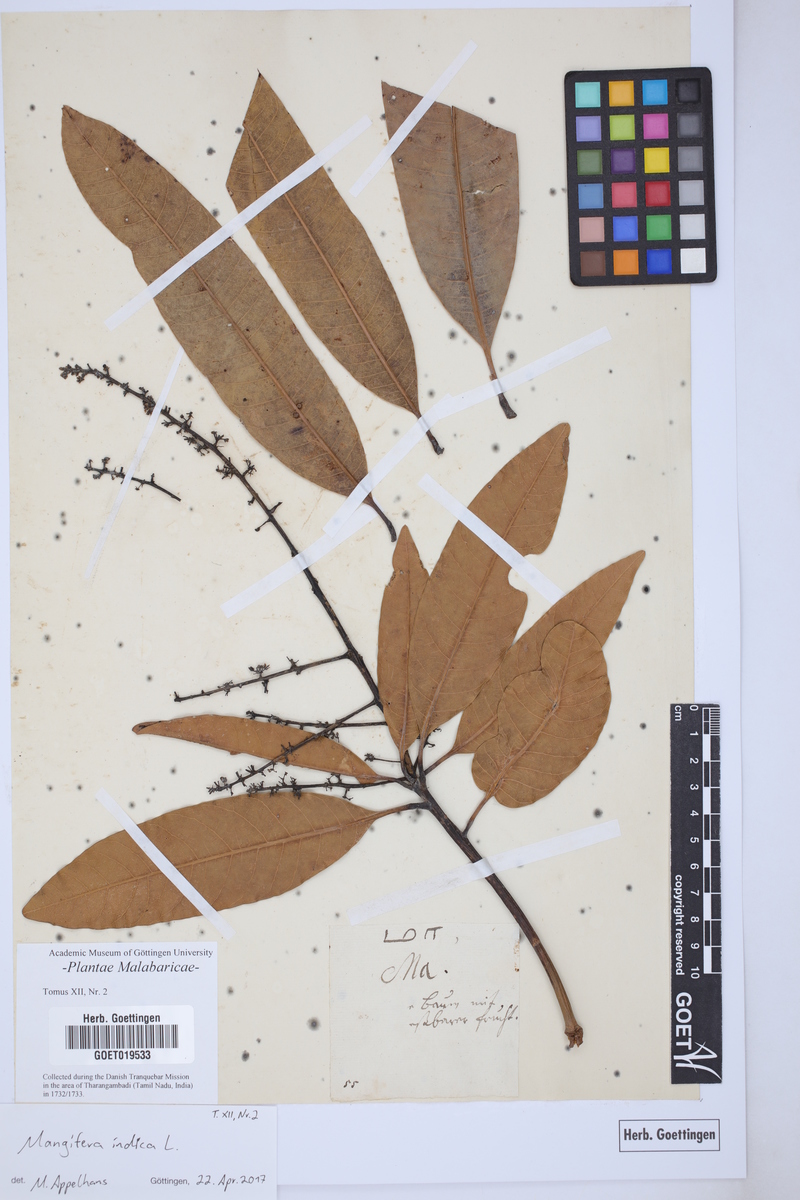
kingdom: Plantae
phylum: Tracheophyta
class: Magnoliopsida
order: Sapindales
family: Anacardiaceae
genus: Mangifera
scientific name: Mangifera indica
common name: Mango
